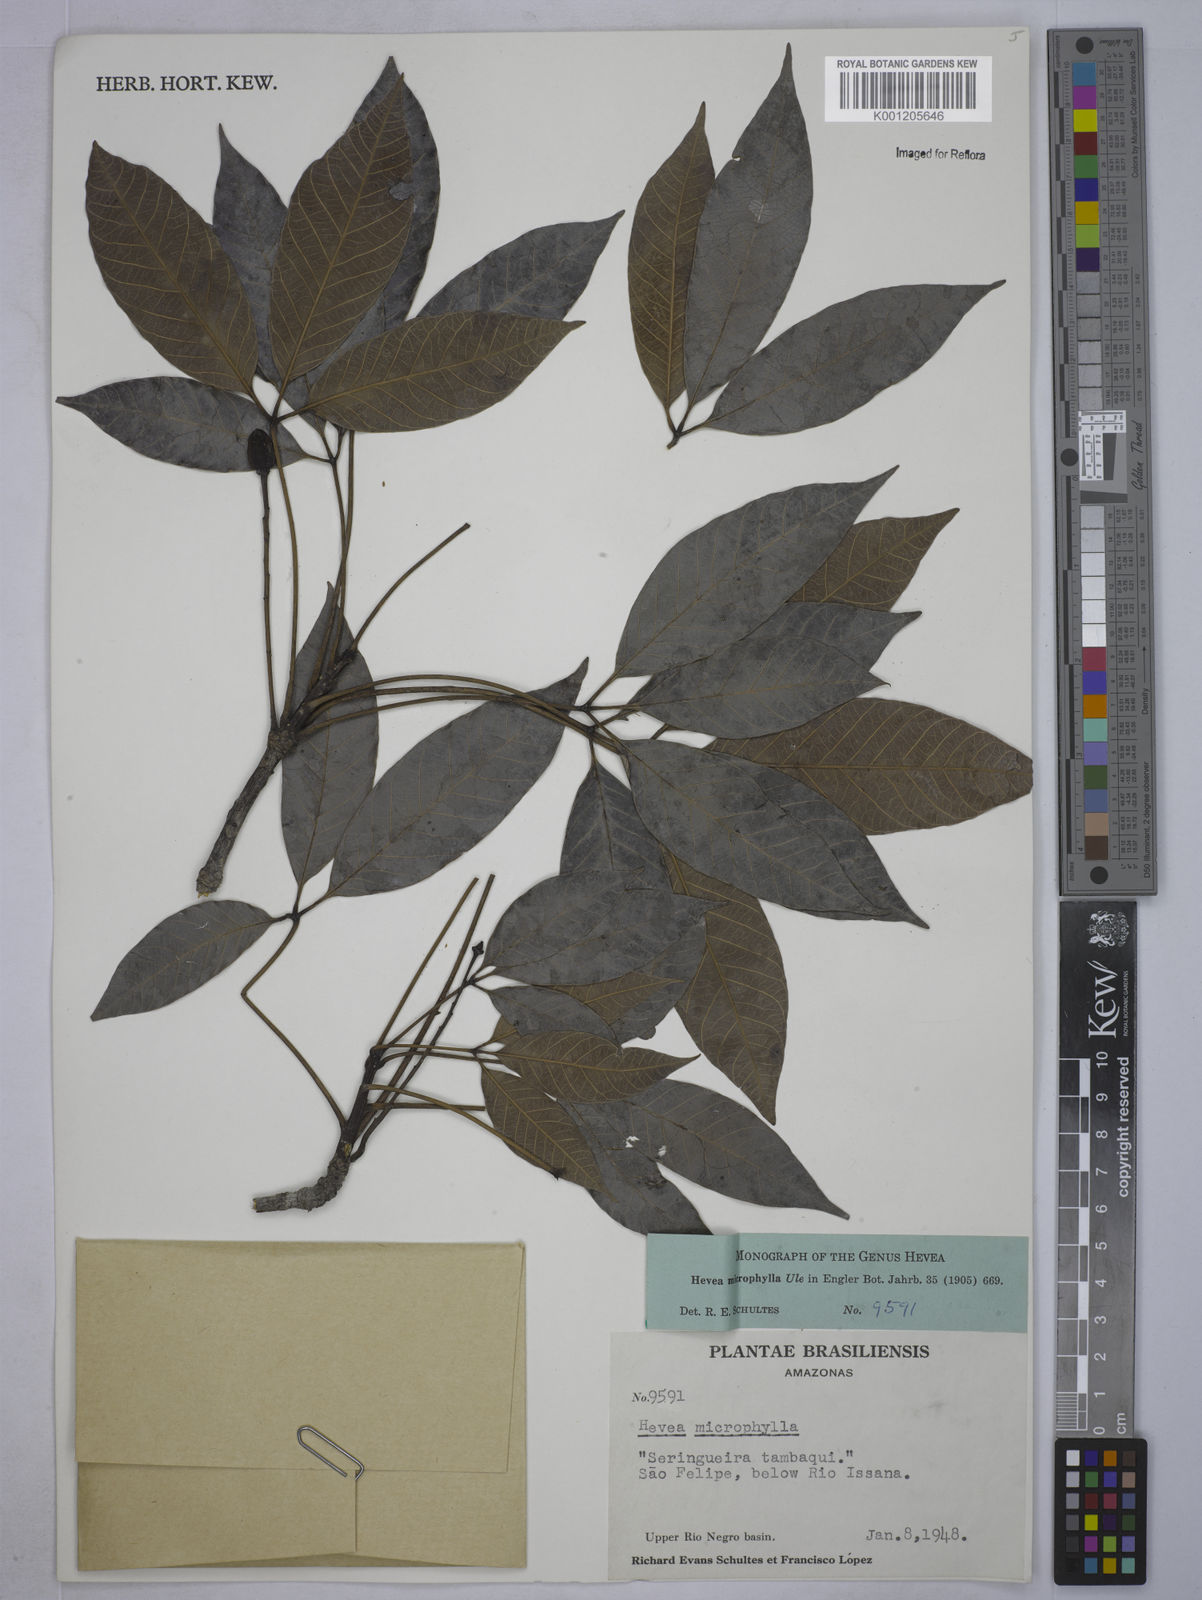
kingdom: Plantae
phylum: Tracheophyta
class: Magnoliopsida
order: Malpighiales
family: Euphorbiaceae
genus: Hevea
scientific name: Hevea microphylla
